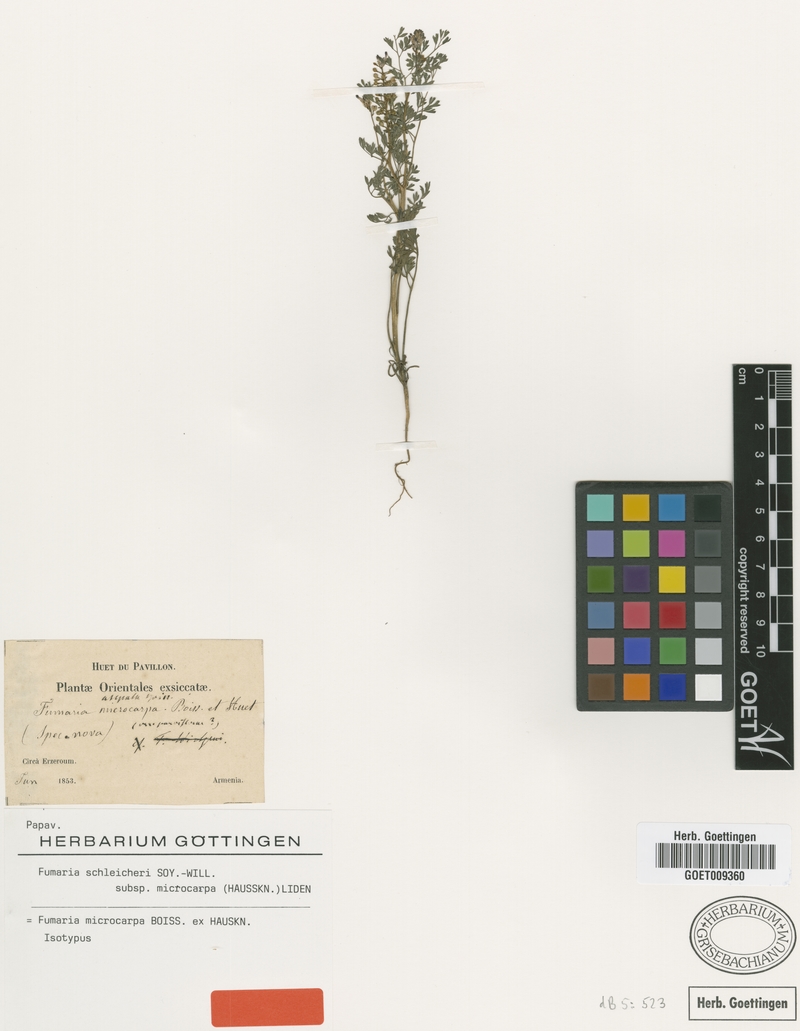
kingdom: Plantae
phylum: Tracheophyta
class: Magnoliopsida
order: Ranunculales
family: Papaveraceae
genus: Fumaria
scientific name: Fumaria schleicheri
